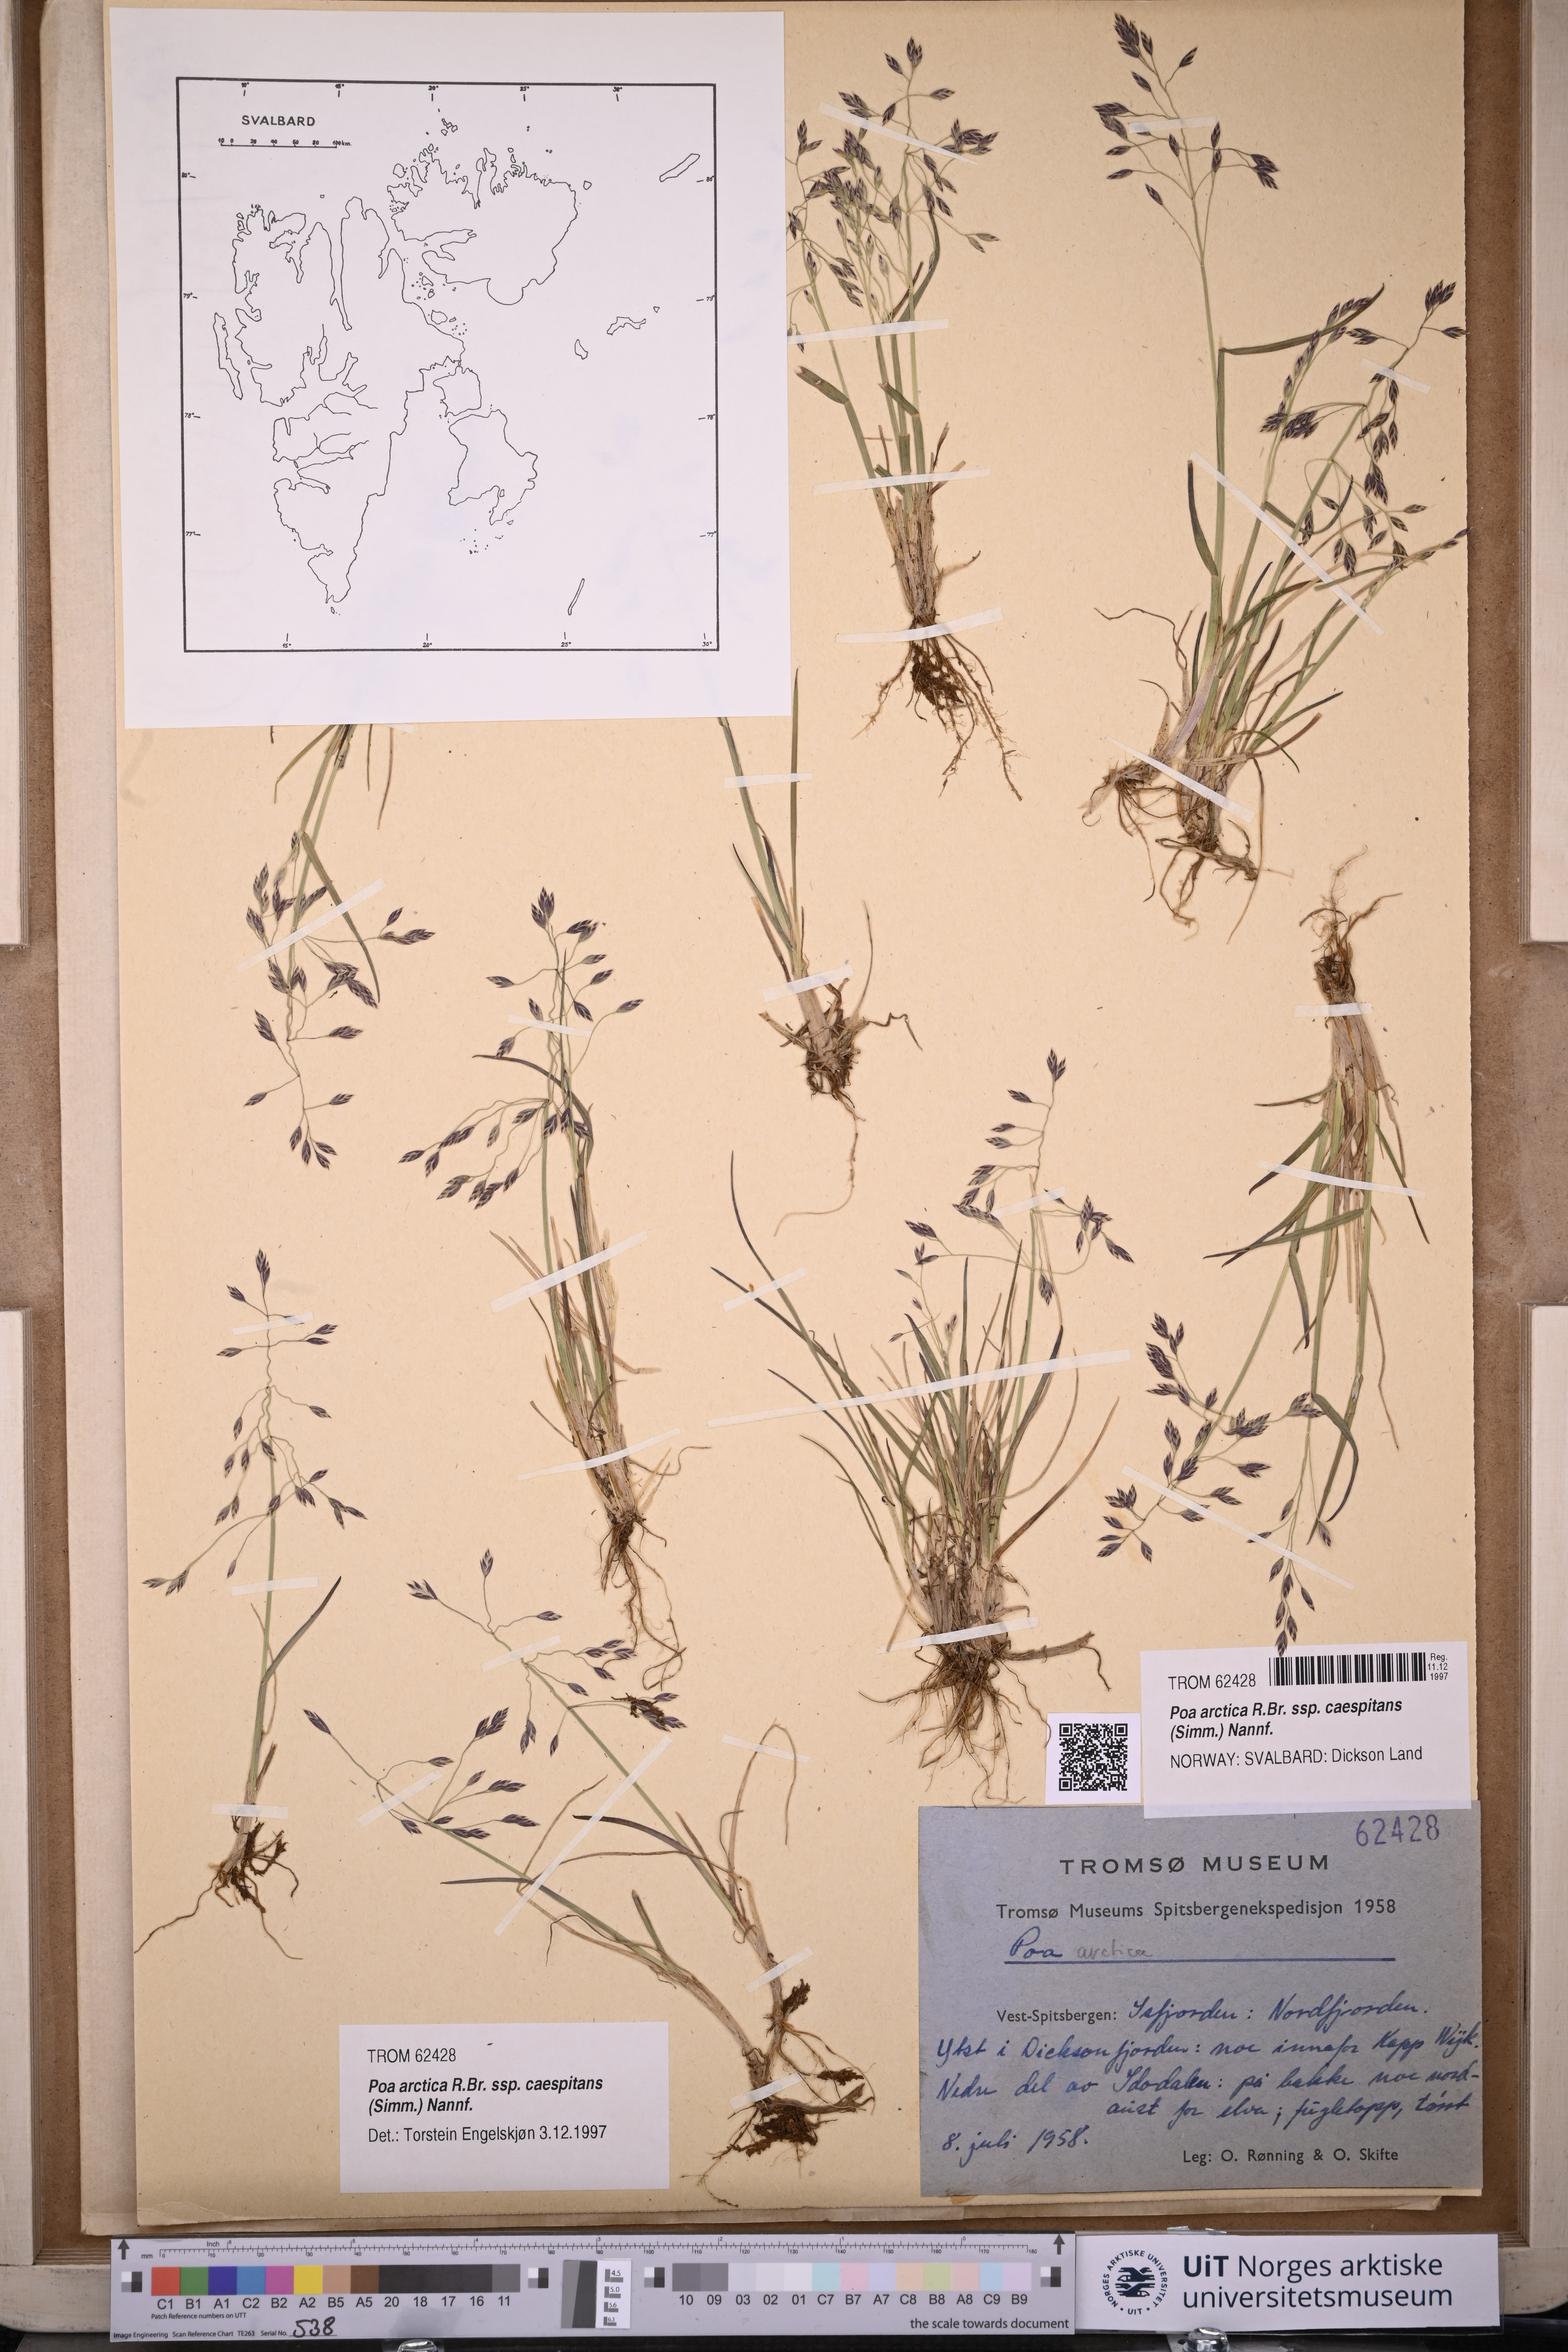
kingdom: Plantae
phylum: Tracheophyta
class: Liliopsida
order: Poales
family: Poaceae
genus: Poa
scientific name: Poa tolmatchewii
